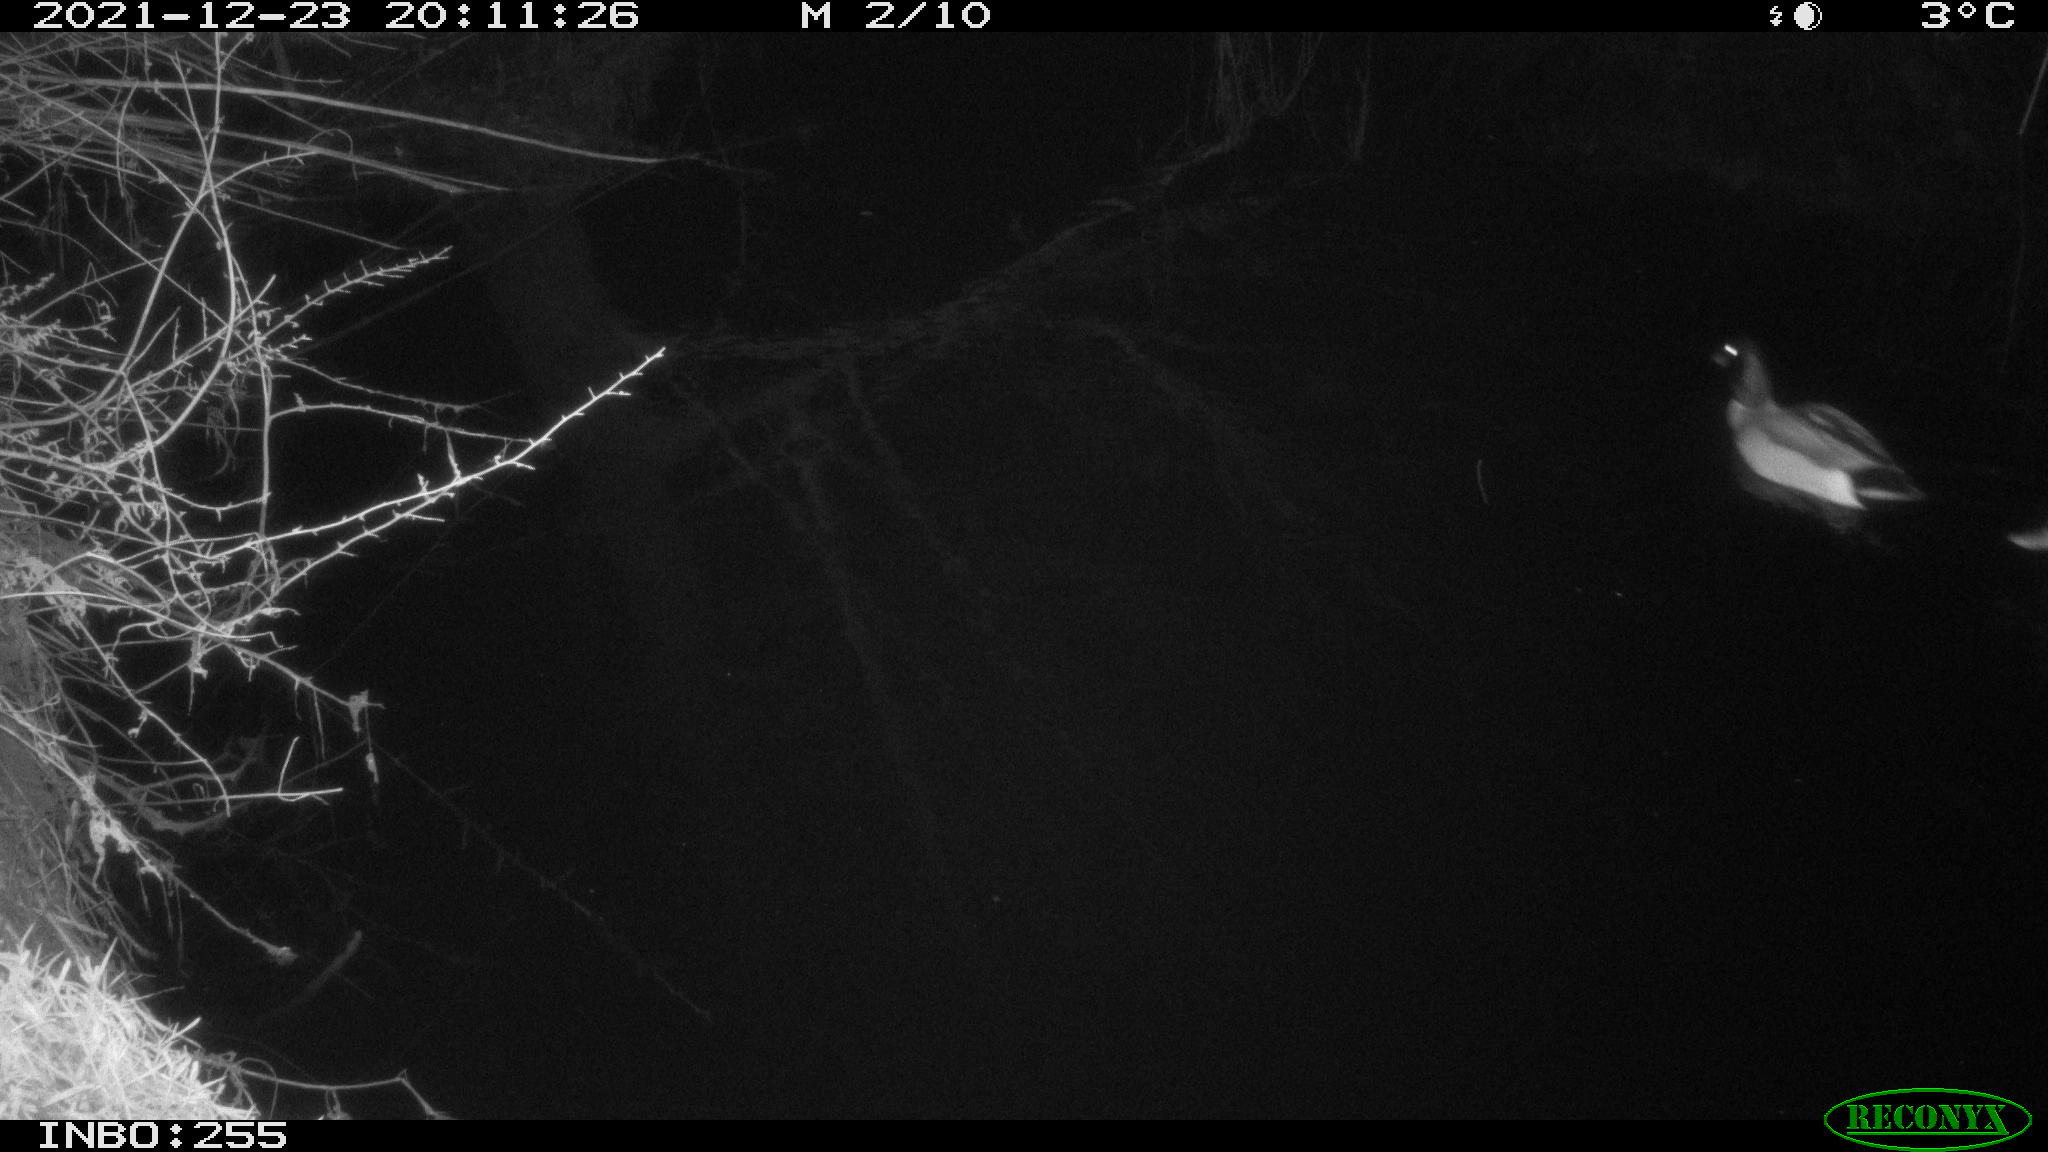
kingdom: Animalia
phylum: Chordata
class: Aves
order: Anseriformes
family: Anatidae
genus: Anas
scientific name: Anas
